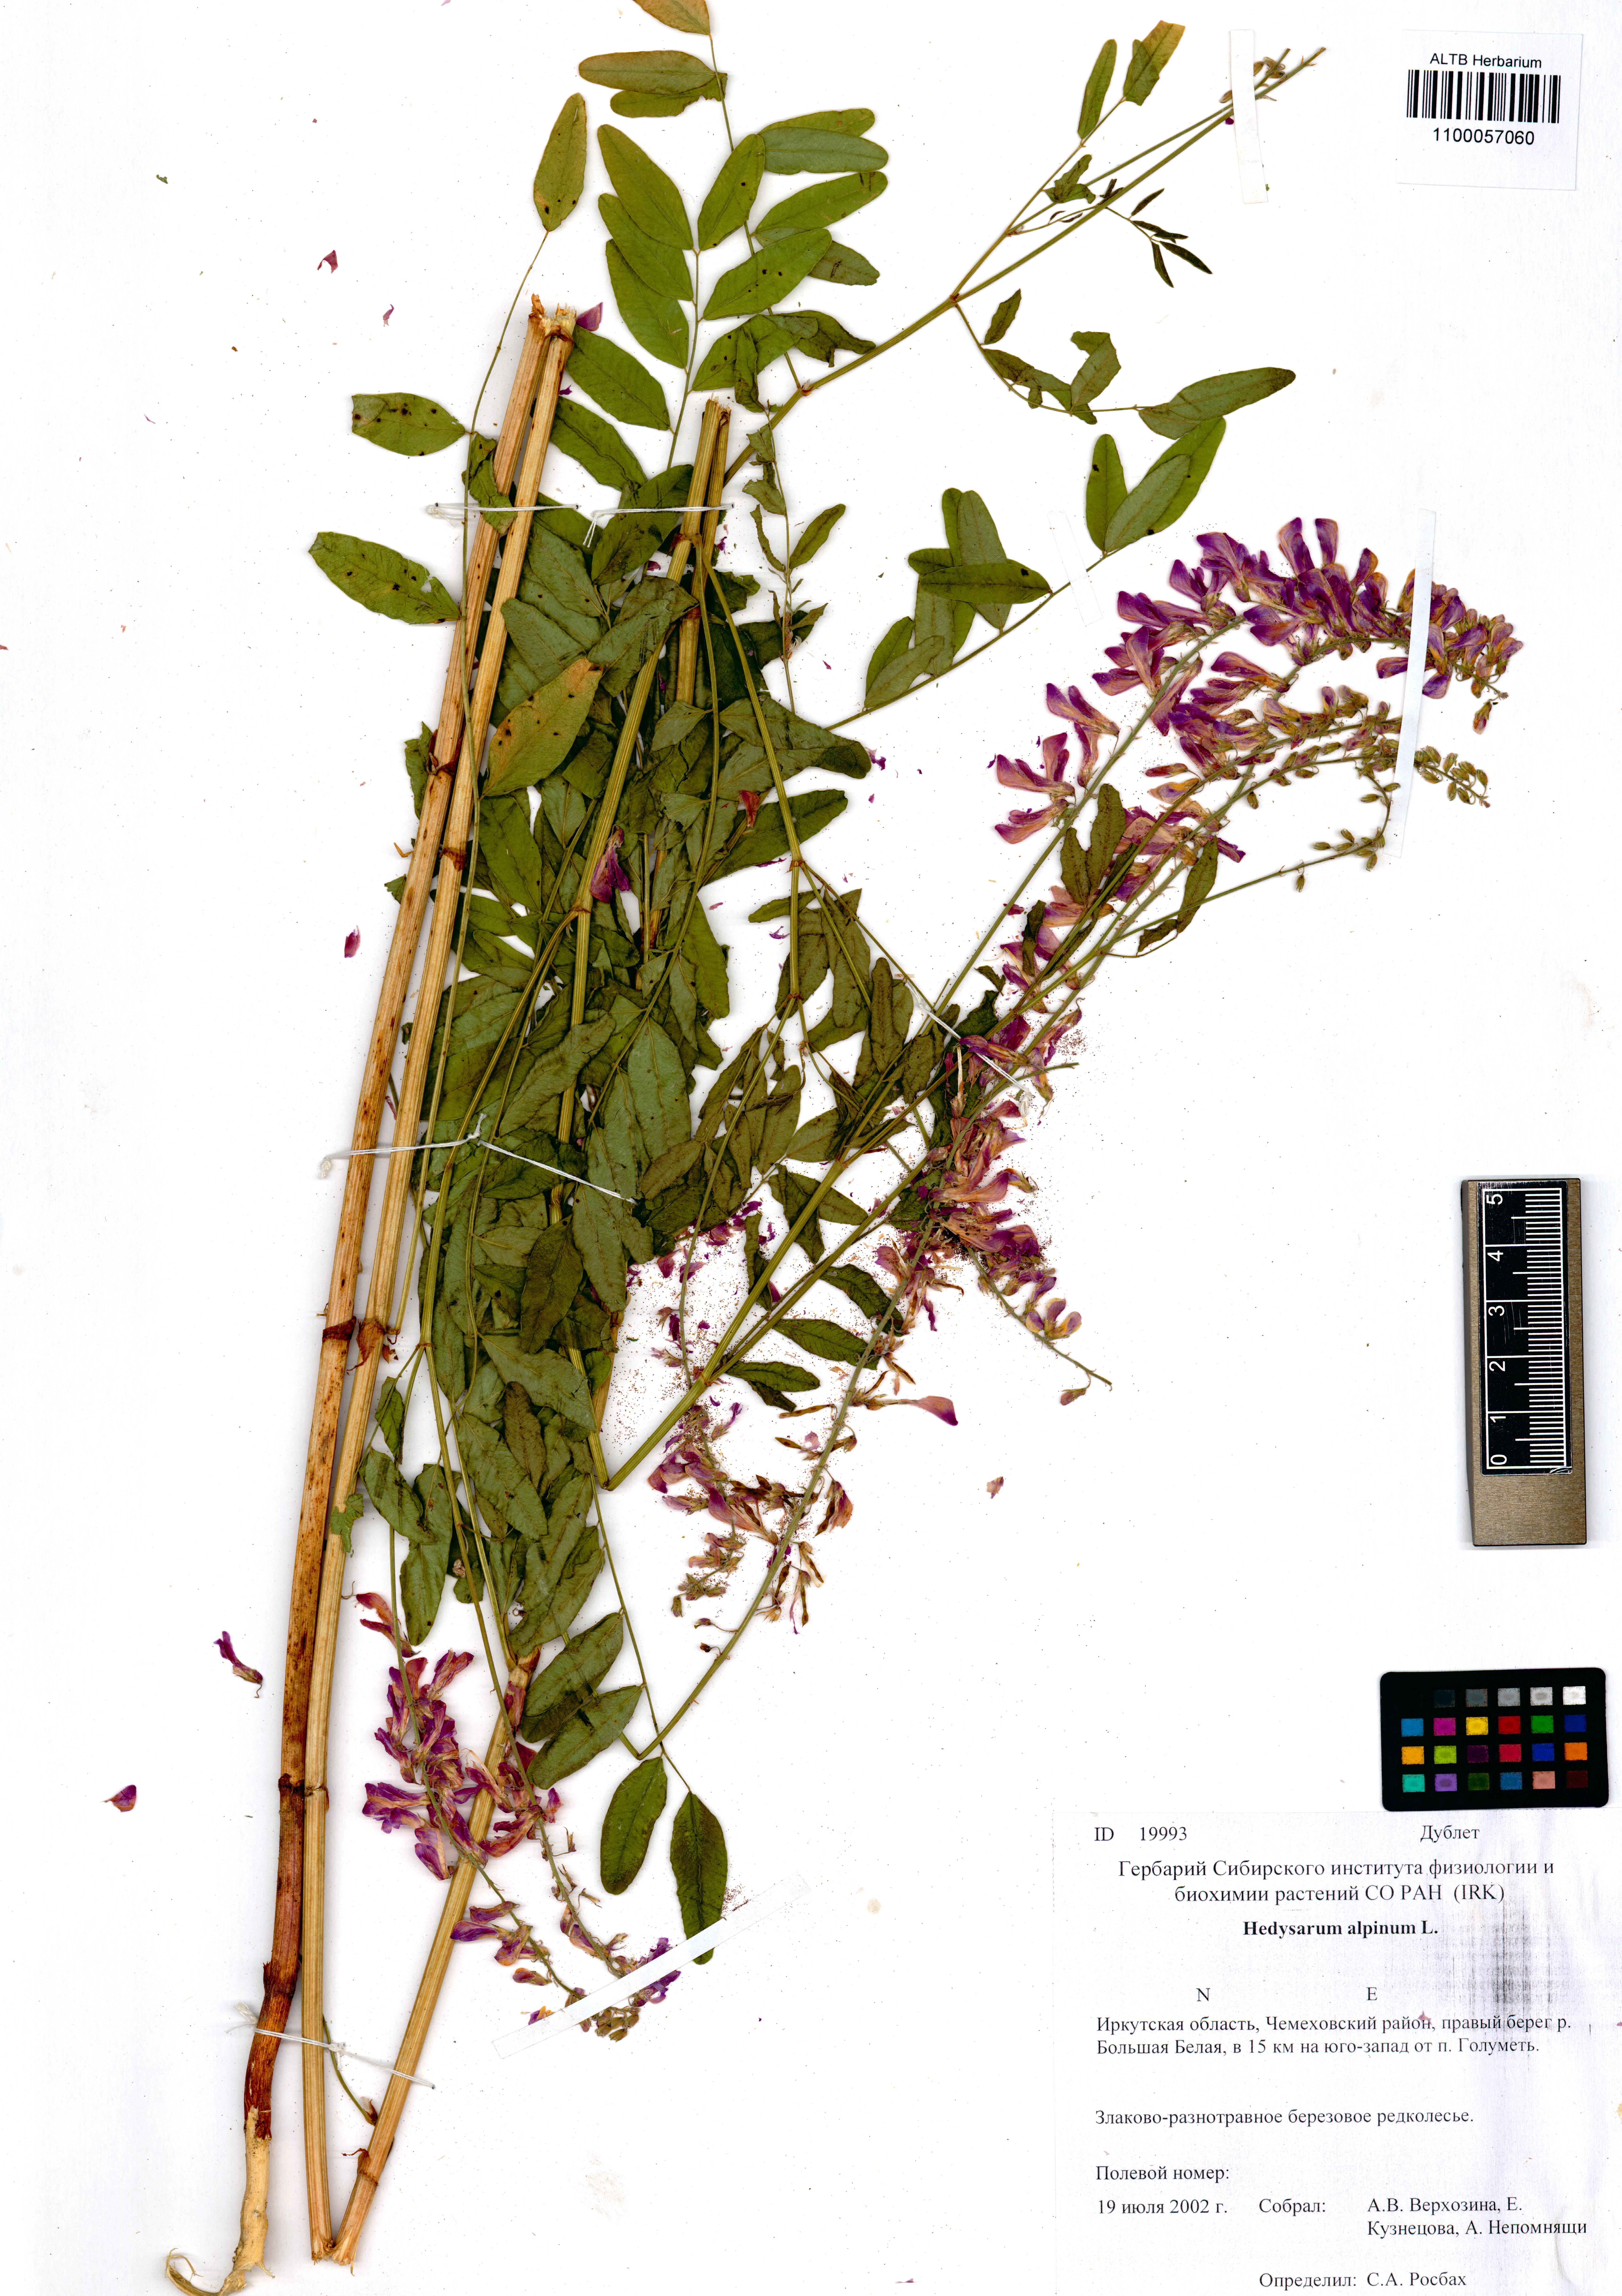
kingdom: Plantae
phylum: Tracheophyta
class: Magnoliopsida
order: Fabales
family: Fabaceae
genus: Hedysarum
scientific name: Hedysarum alpinum
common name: Alpine sweet-vetch
